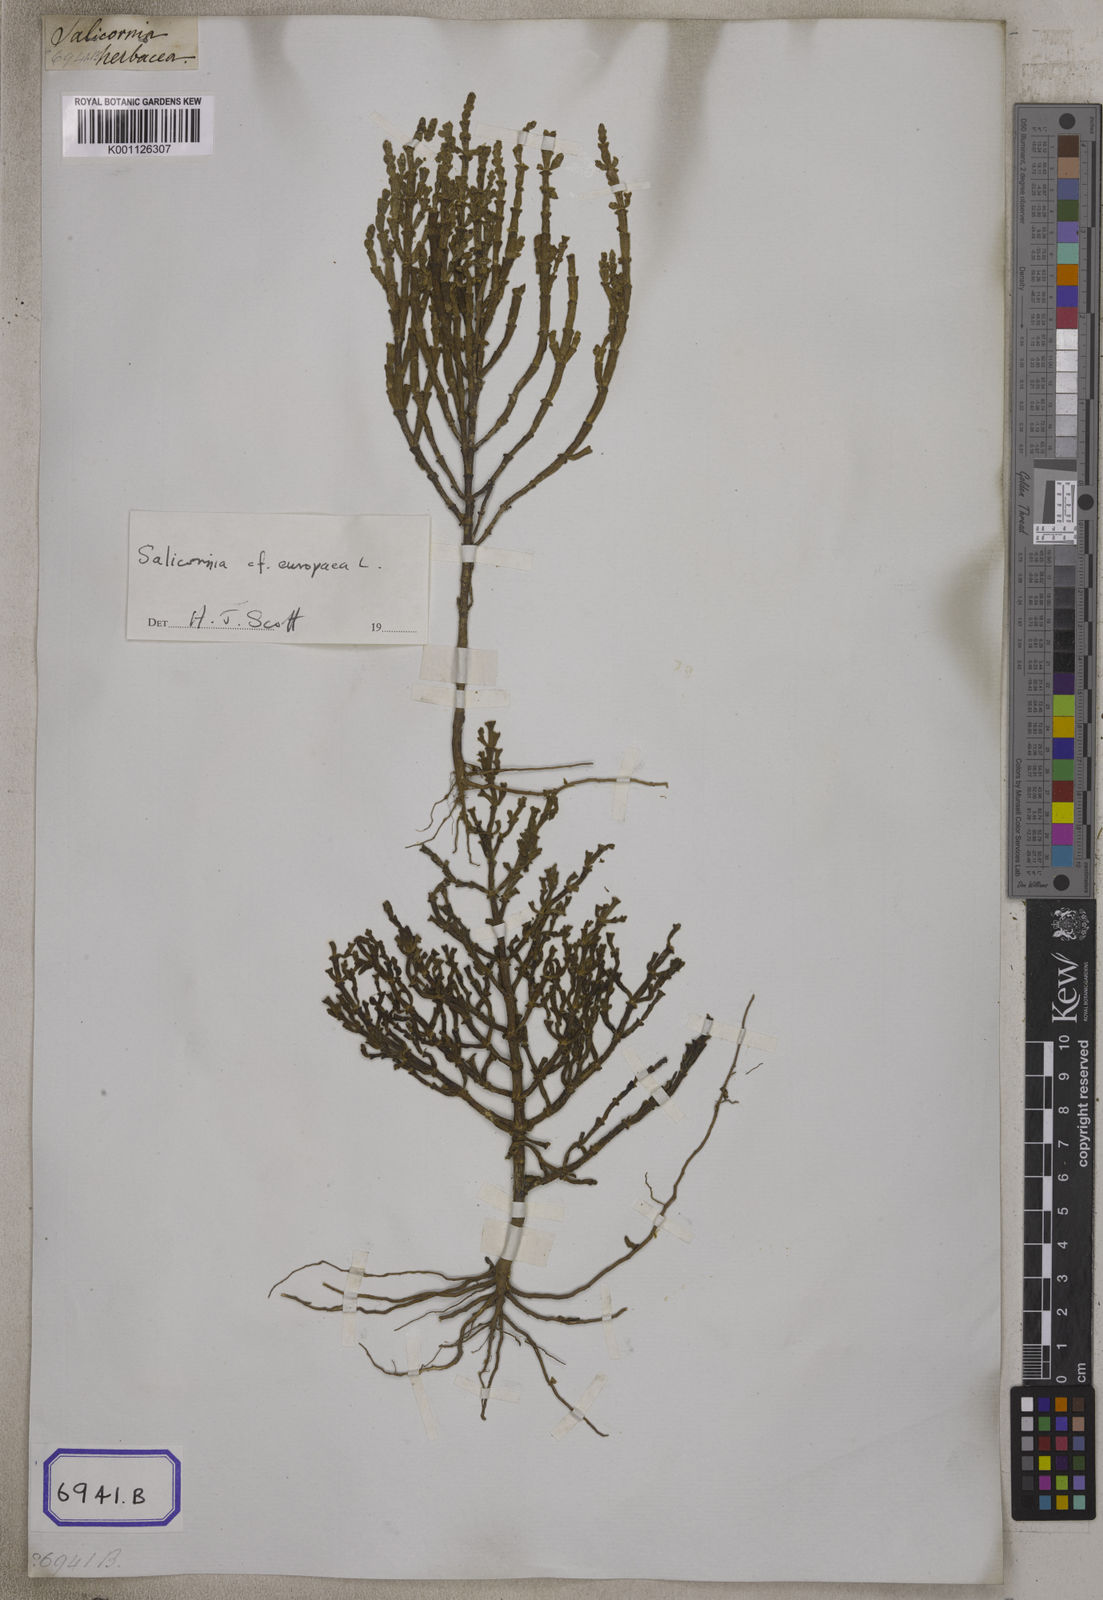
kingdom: Plantae
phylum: Tracheophyta
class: Magnoliopsida
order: Caryophyllales
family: Amaranthaceae
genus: Salicornia
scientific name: Salicornia brachiata
